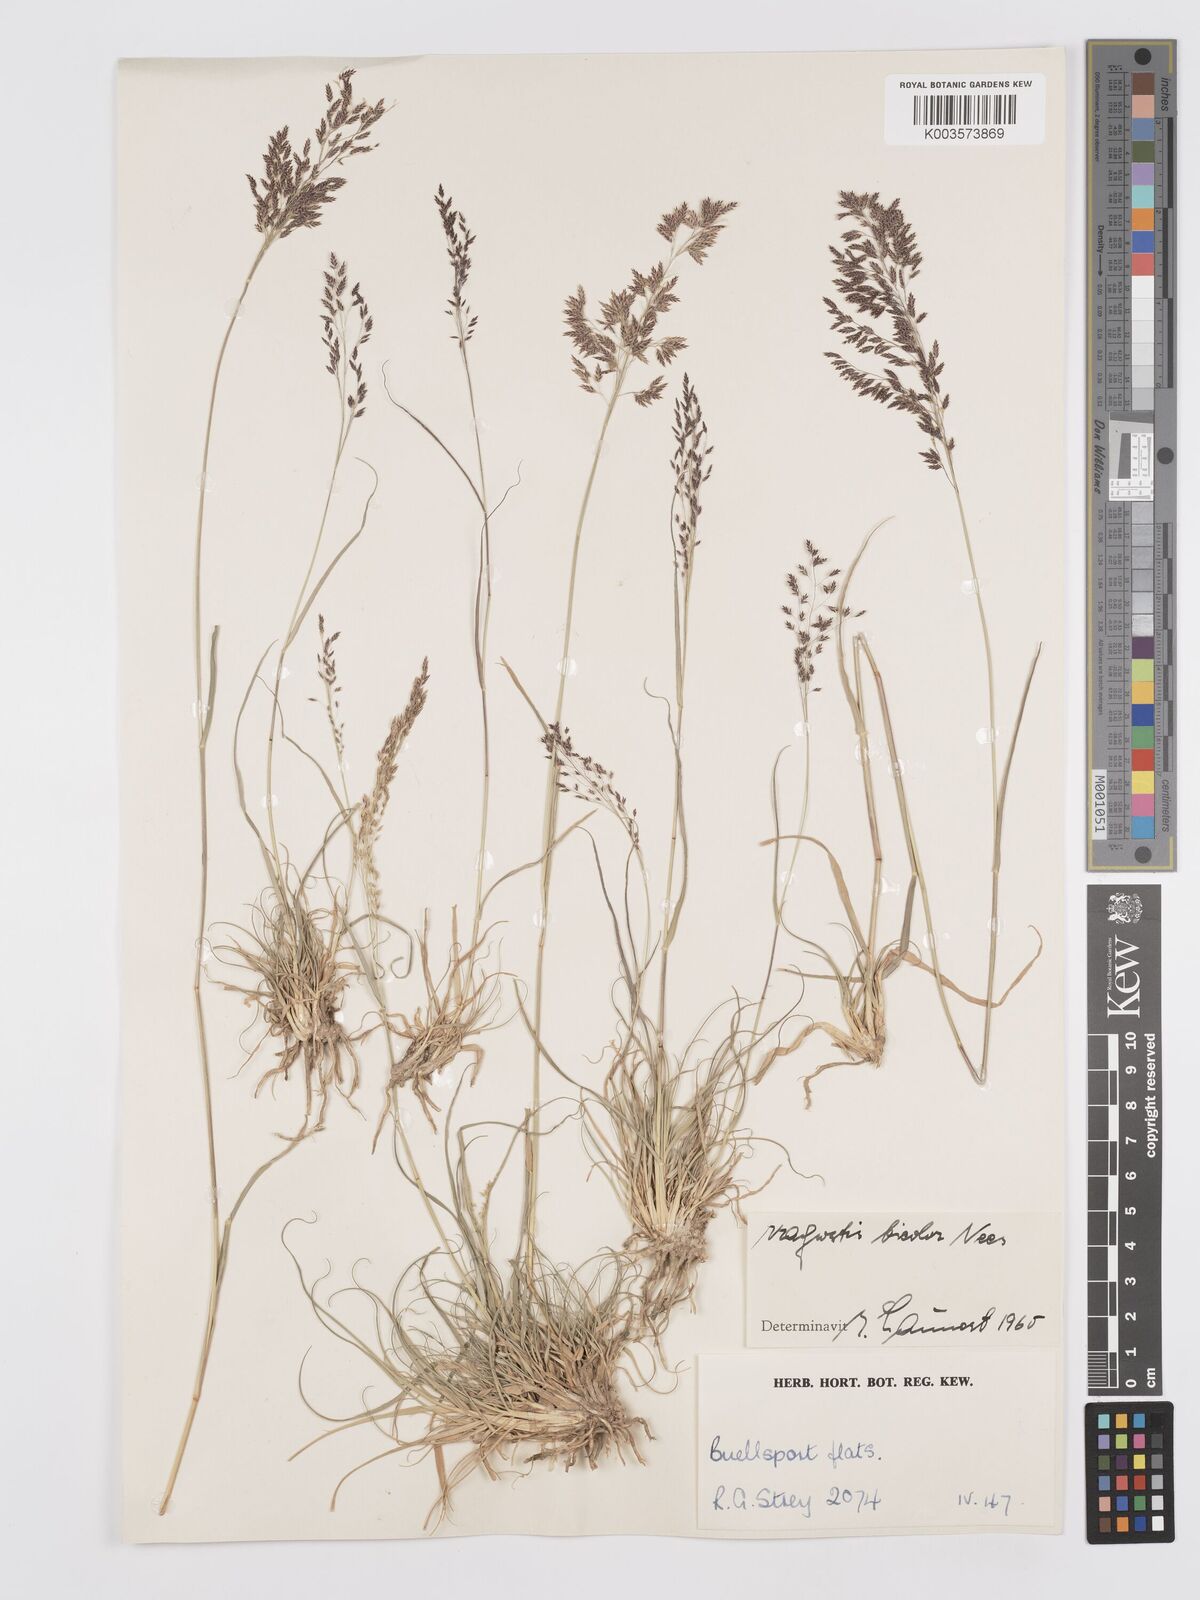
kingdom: Plantae
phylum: Tracheophyta
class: Liliopsida
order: Poales
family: Poaceae
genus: Eragrostis
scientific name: Eragrostis
